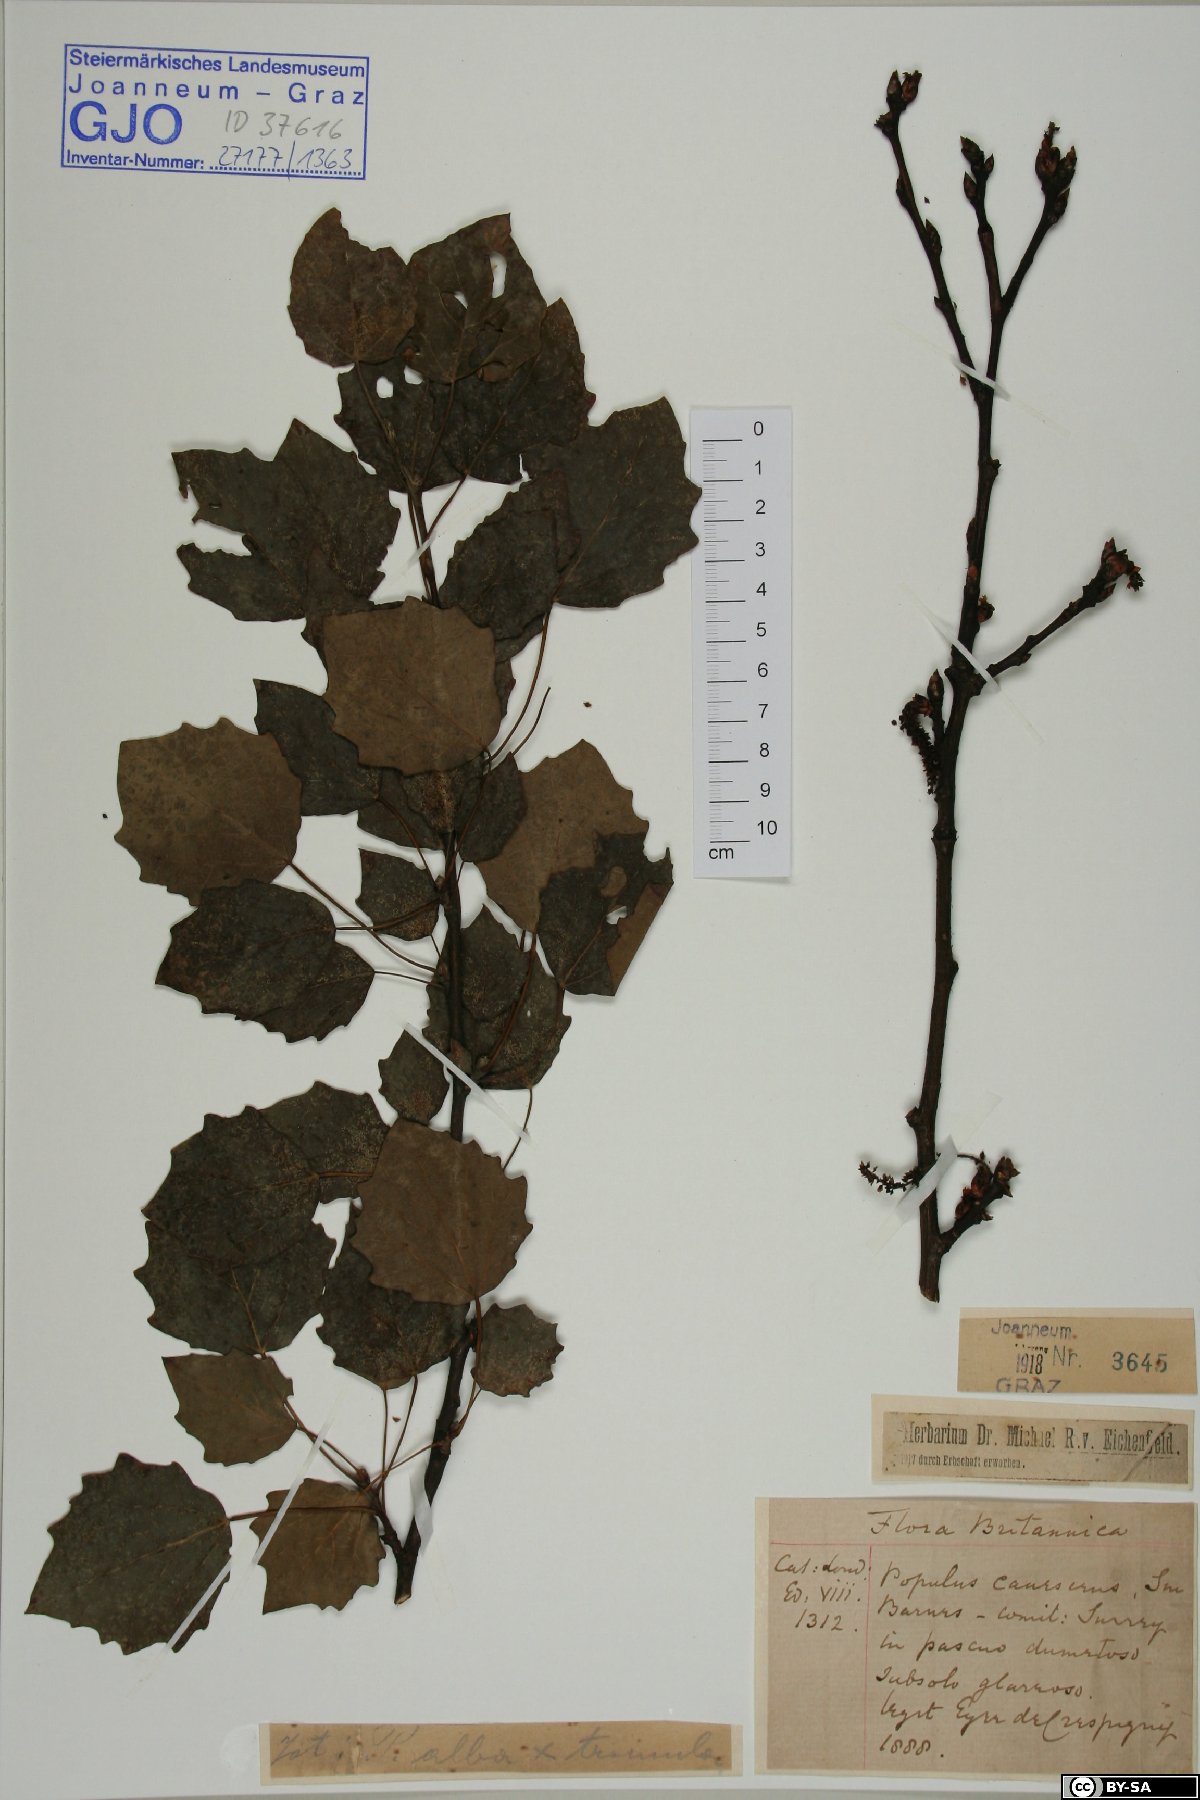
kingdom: Plantae
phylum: Tracheophyta
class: Magnoliopsida
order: Malpighiales
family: Salicaceae
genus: Populus
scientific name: Populus canescens
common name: Gray poplar
